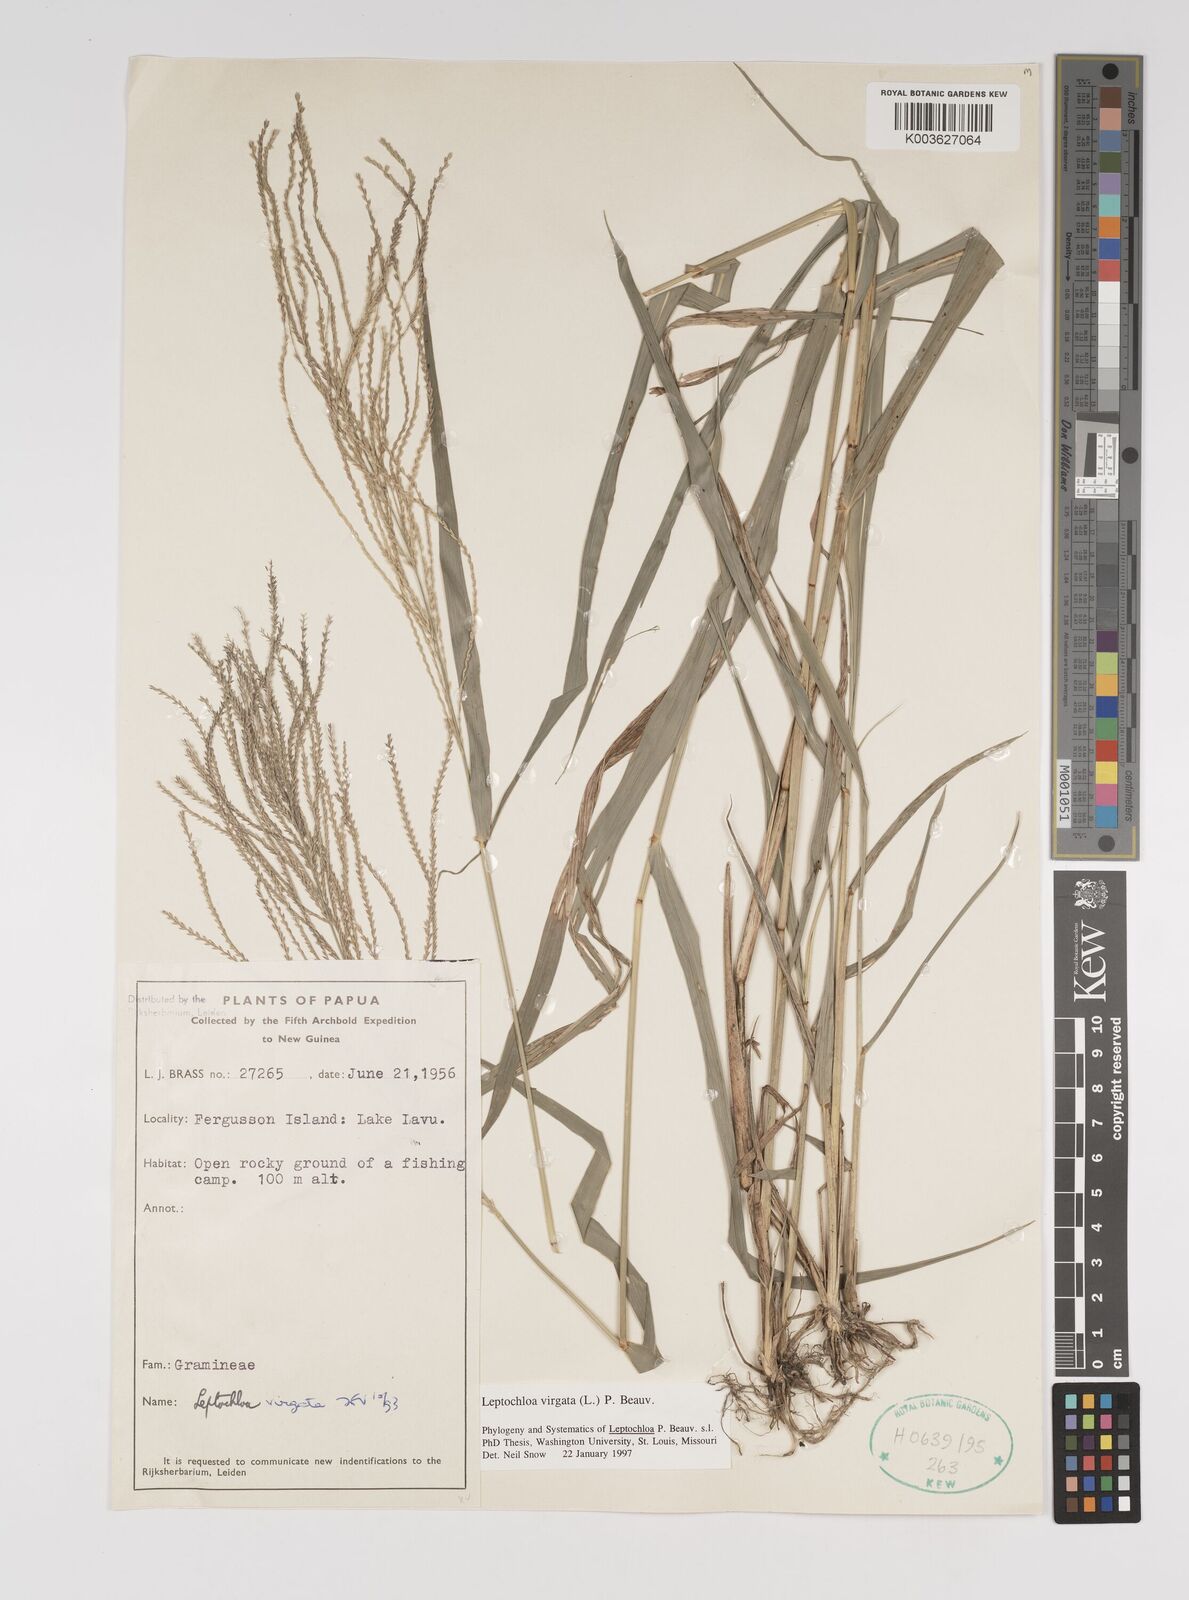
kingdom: Plantae
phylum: Tracheophyta
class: Liliopsida
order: Poales
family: Poaceae
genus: Leptochloa
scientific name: Leptochloa
